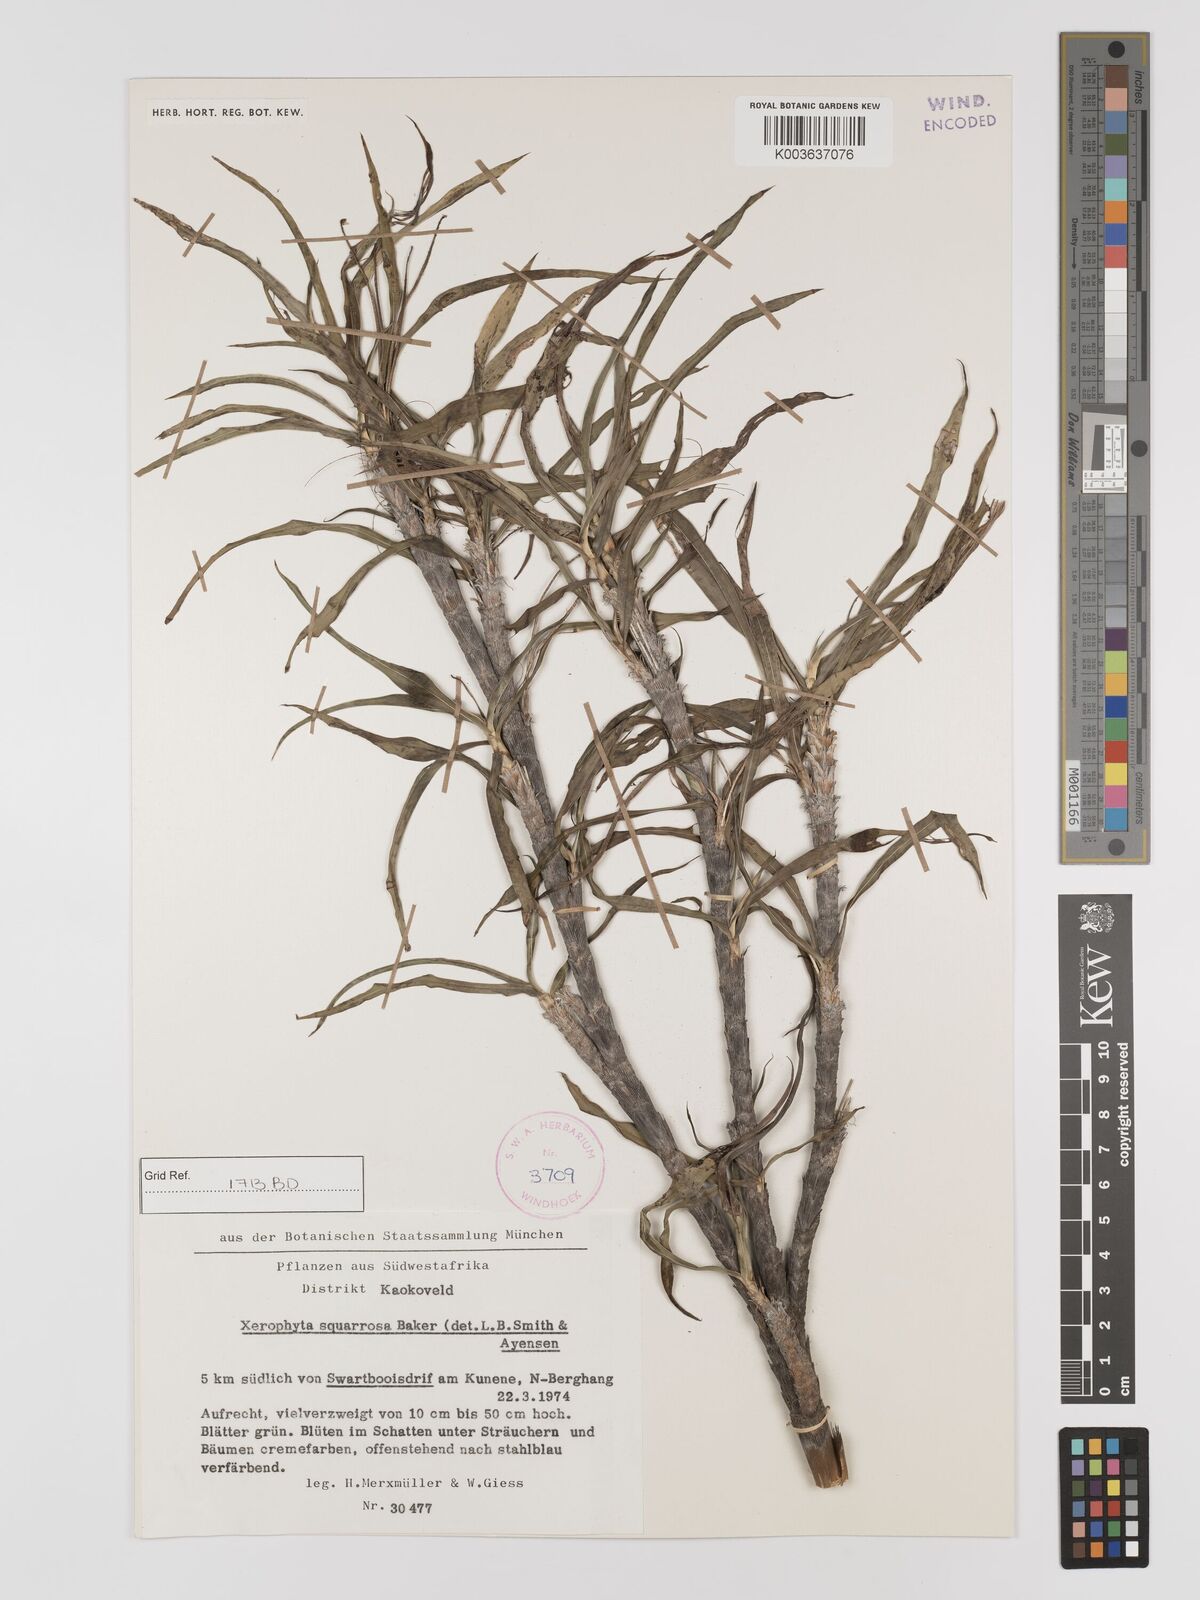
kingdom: Plantae
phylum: Tracheophyta
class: Liliopsida
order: Pandanales
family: Velloziaceae
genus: Xerophyta
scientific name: Xerophyta squarrosa
